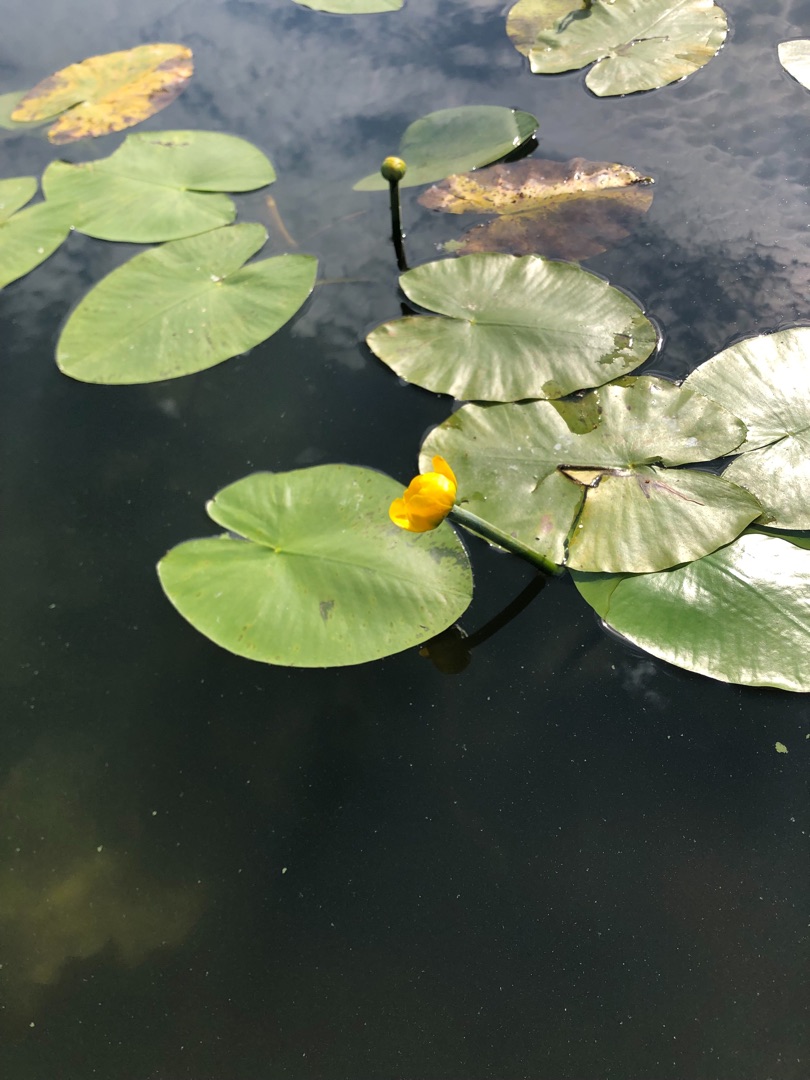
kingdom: Plantae
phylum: Tracheophyta
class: Magnoliopsida
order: Nymphaeales
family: Nymphaeaceae
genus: Nuphar
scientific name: Nuphar lutea
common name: Gul åkande
